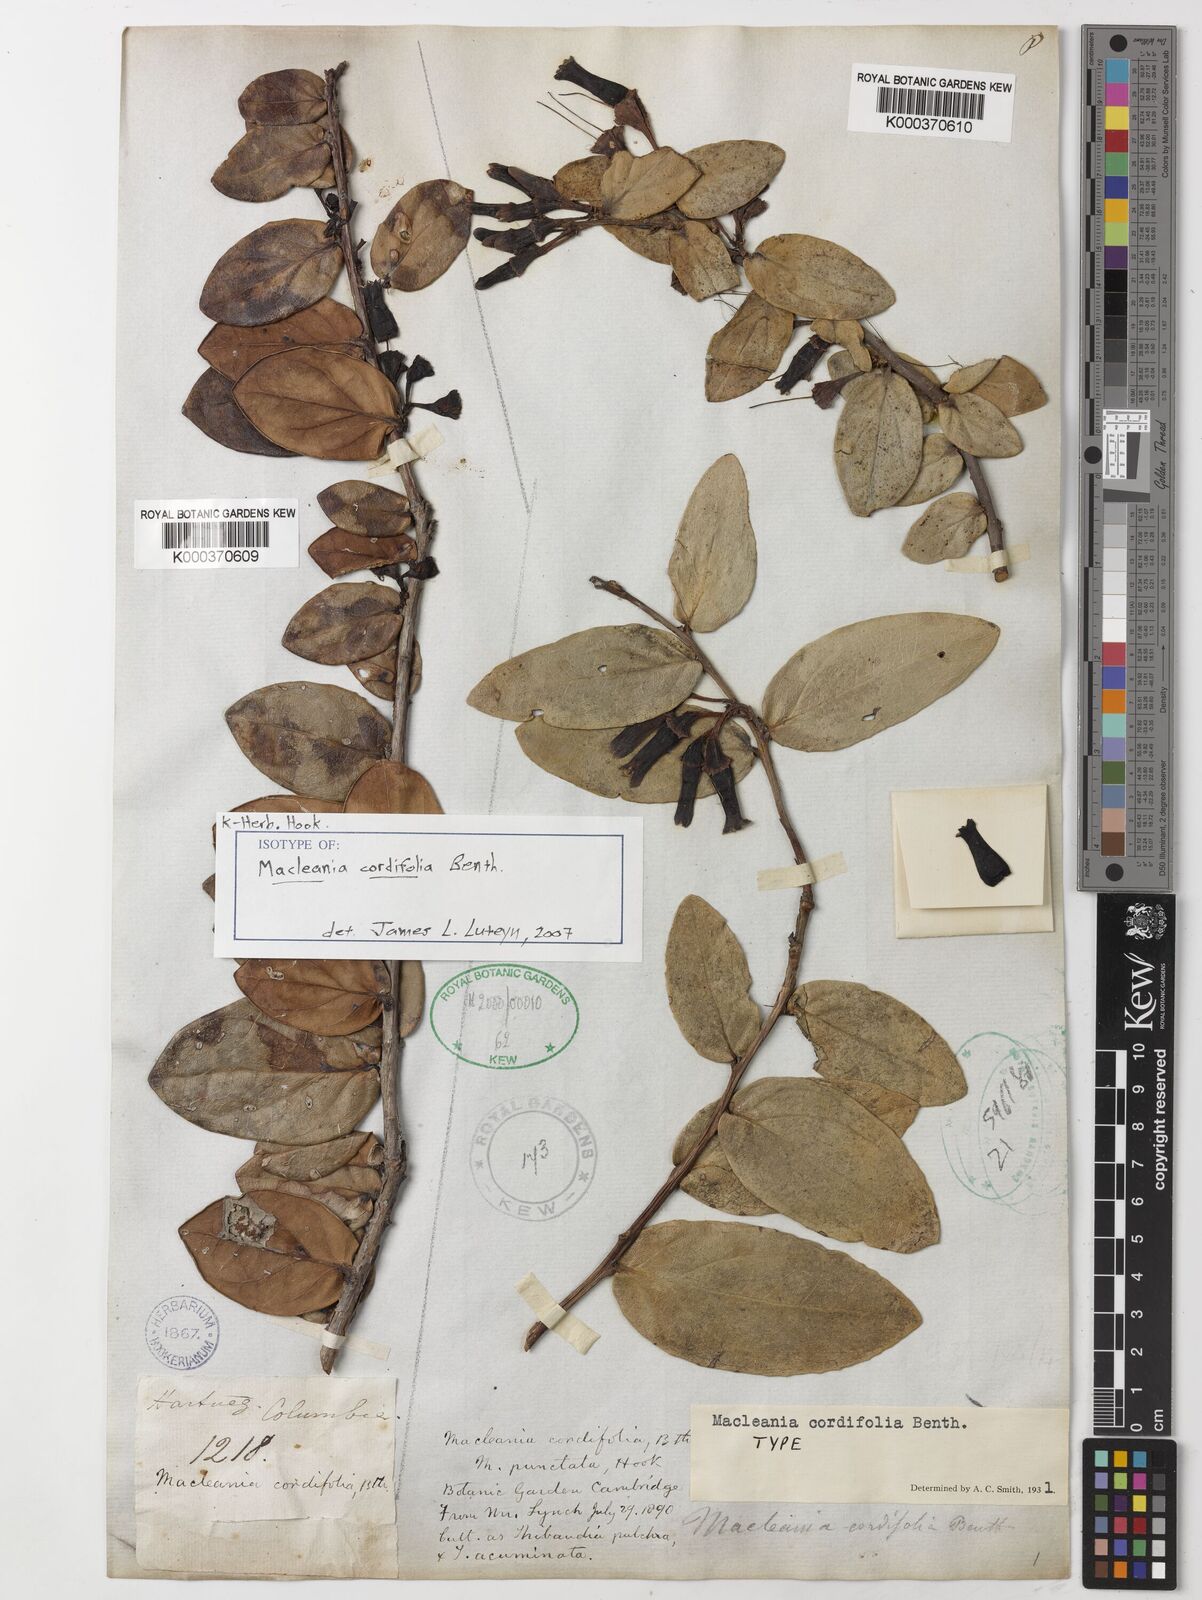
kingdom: Plantae
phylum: Tracheophyta
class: Magnoliopsida
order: Ericales
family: Ericaceae
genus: Macleania
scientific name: Macleania cordifolia
